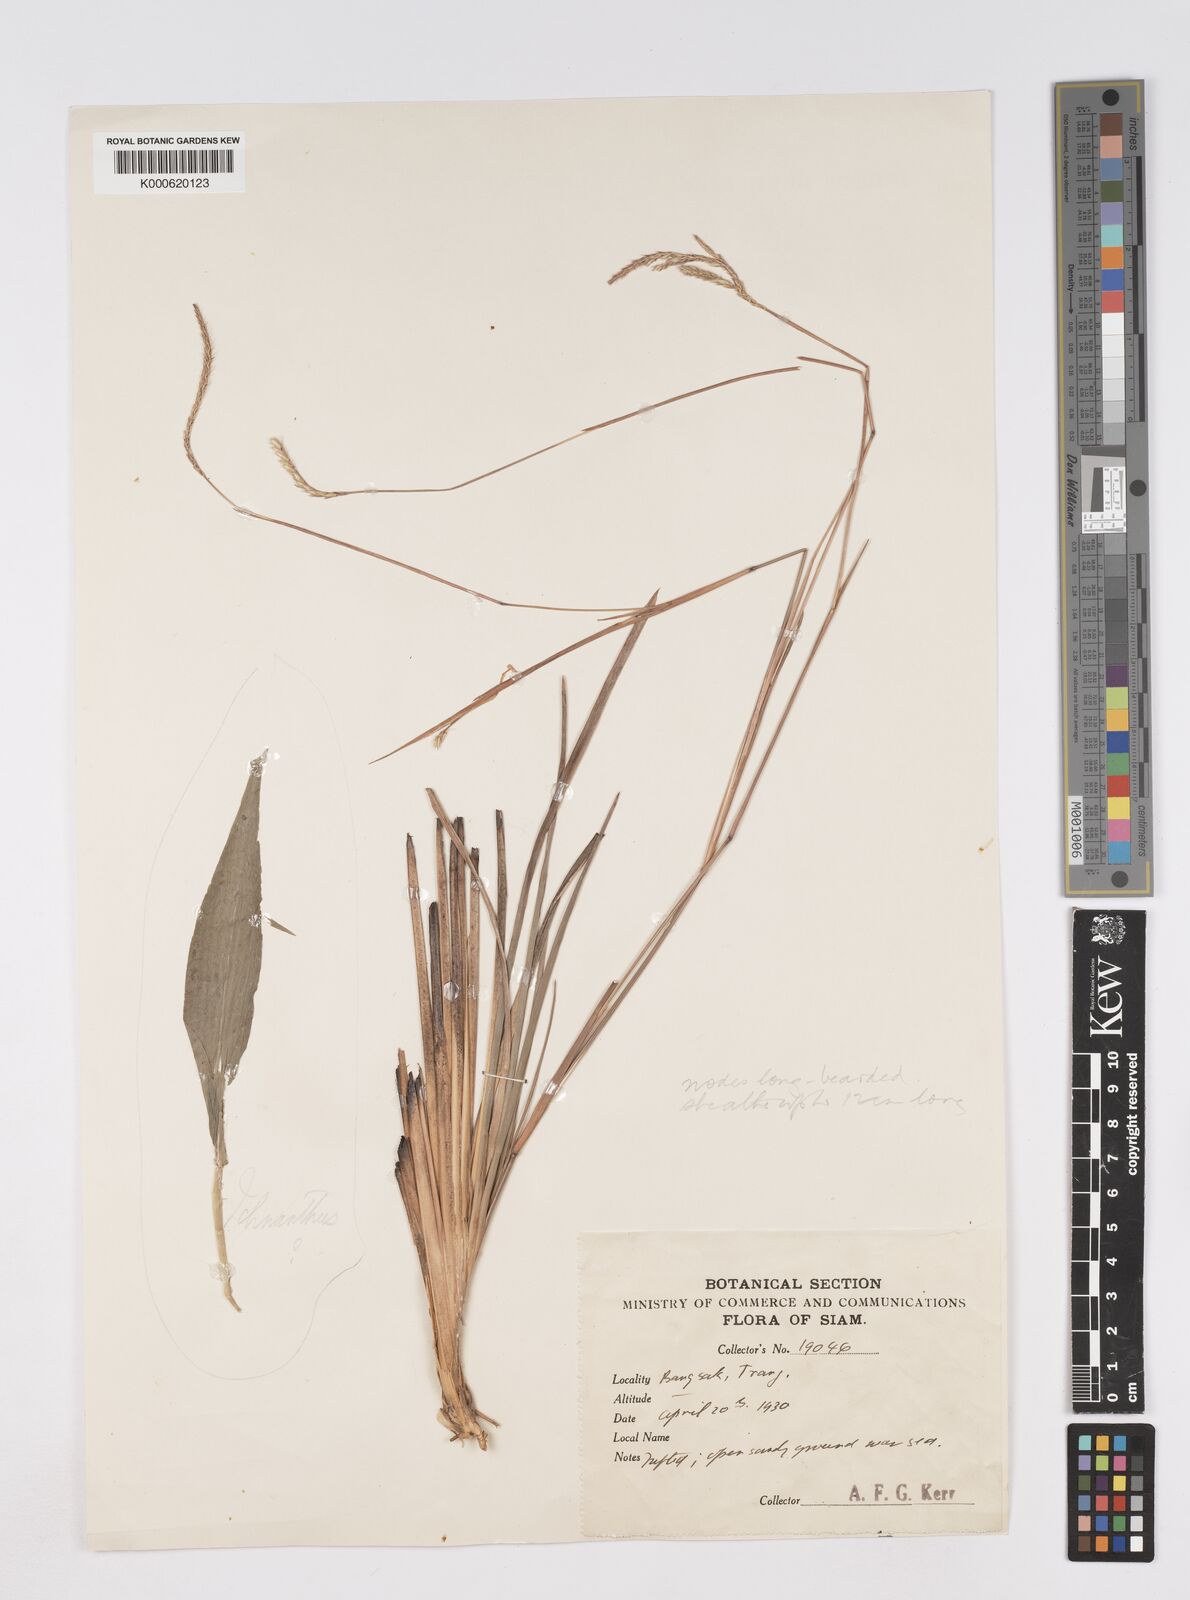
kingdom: Plantae
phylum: Tracheophyta
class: Liliopsida
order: Poales
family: Poaceae
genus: Eremochloa
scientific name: Eremochloa ciliaris
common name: Fringed centipede grass
